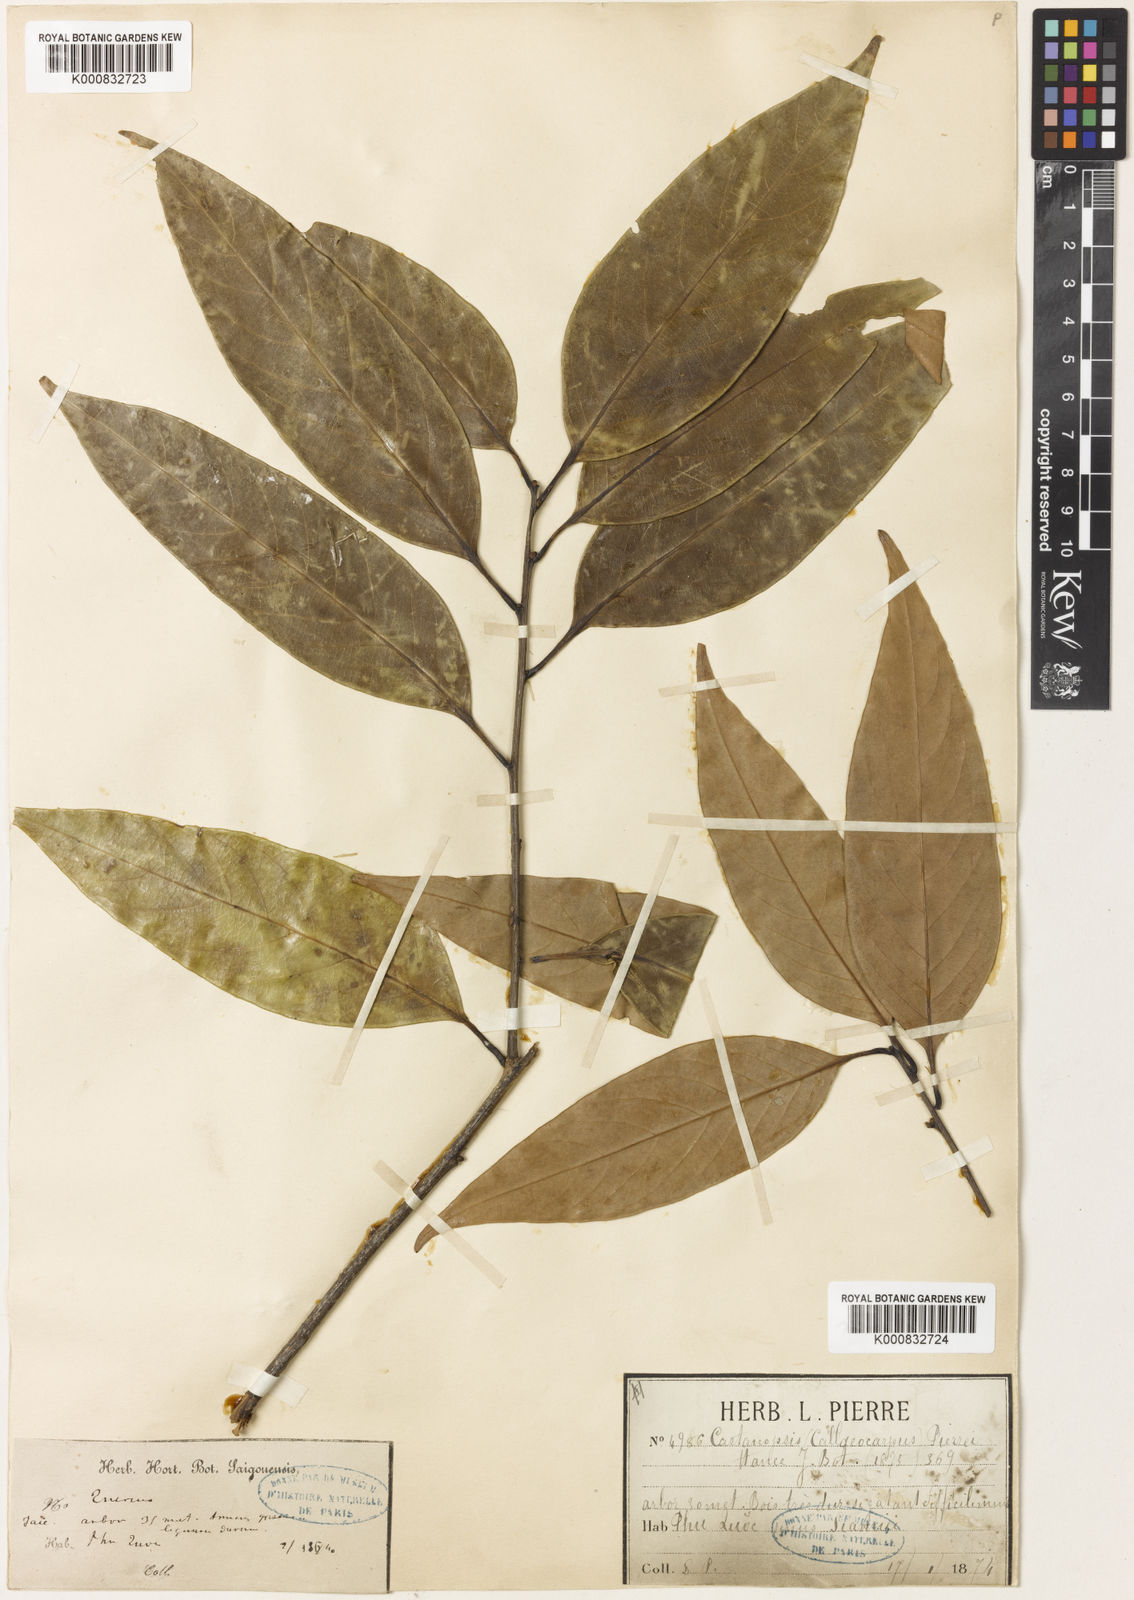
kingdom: Plantae
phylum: Tracheophyta
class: Magnoliopsida
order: Fagales
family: Fagaceae
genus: Castanopsis
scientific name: Castanopsis pierrei
